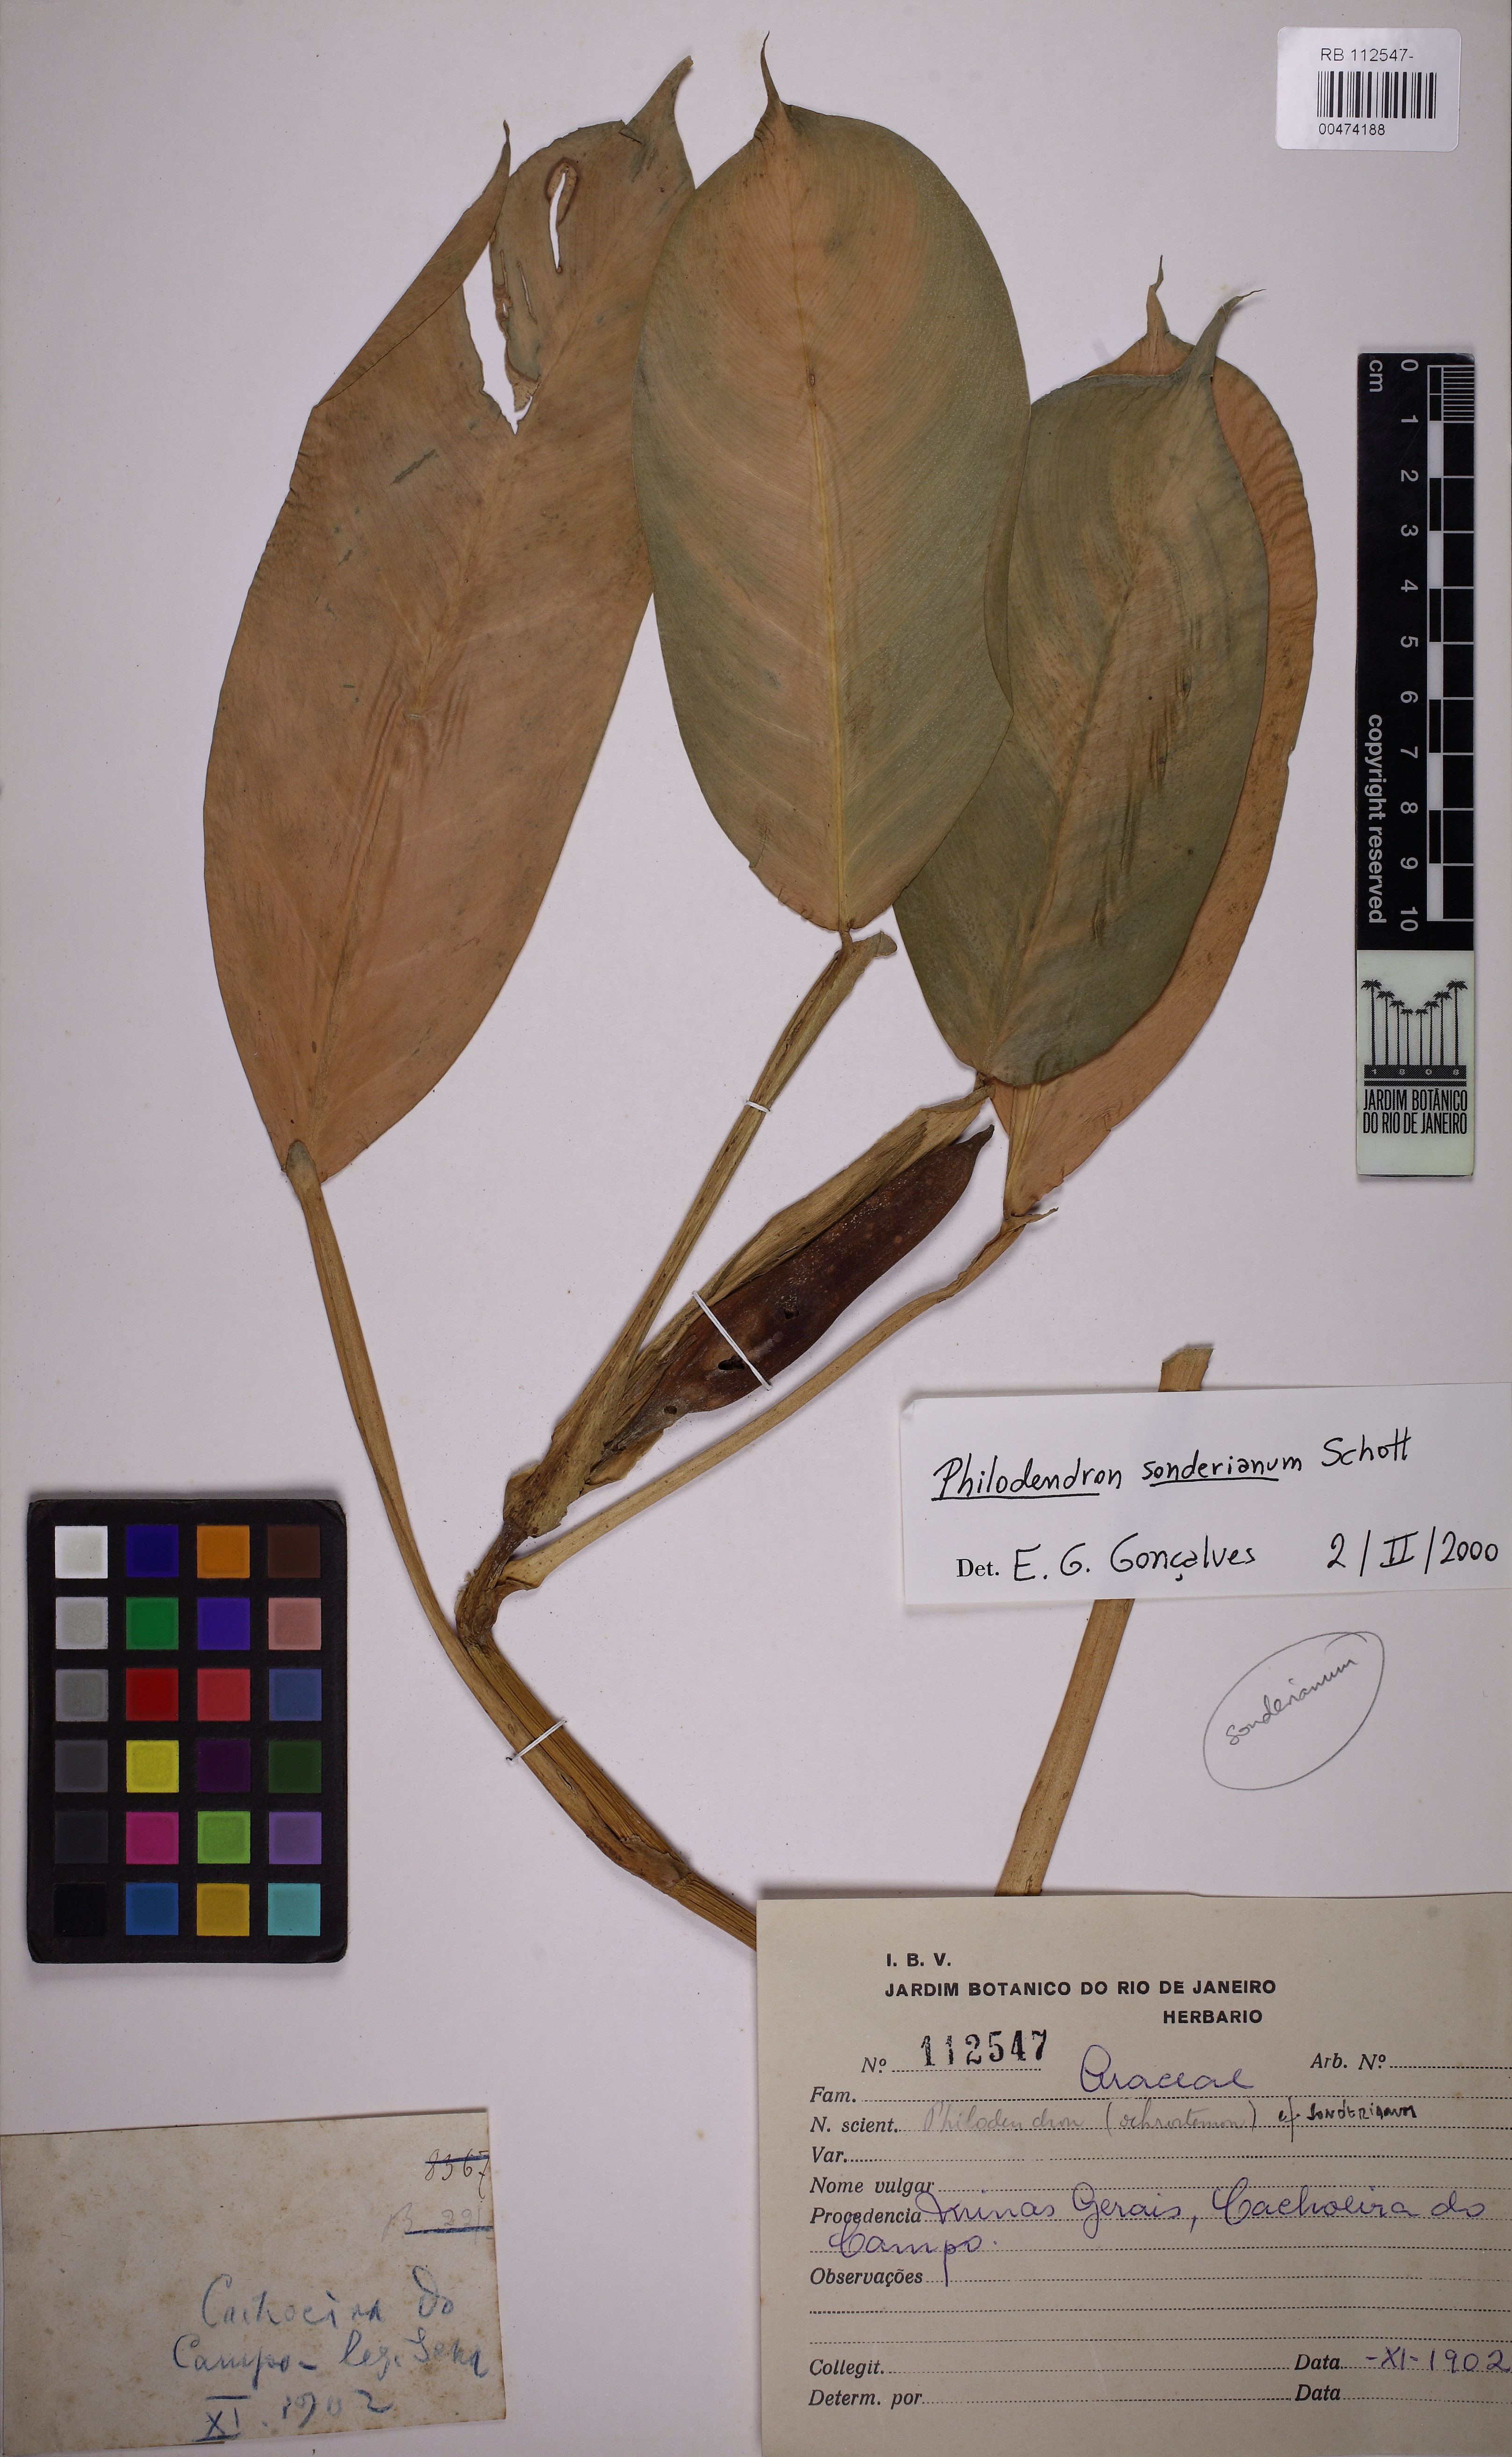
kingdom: Plantae
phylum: Tracheophyta
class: Liliopsida
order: Alismatales
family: Araceae
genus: Philodendron
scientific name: Philodendron sonderianum
